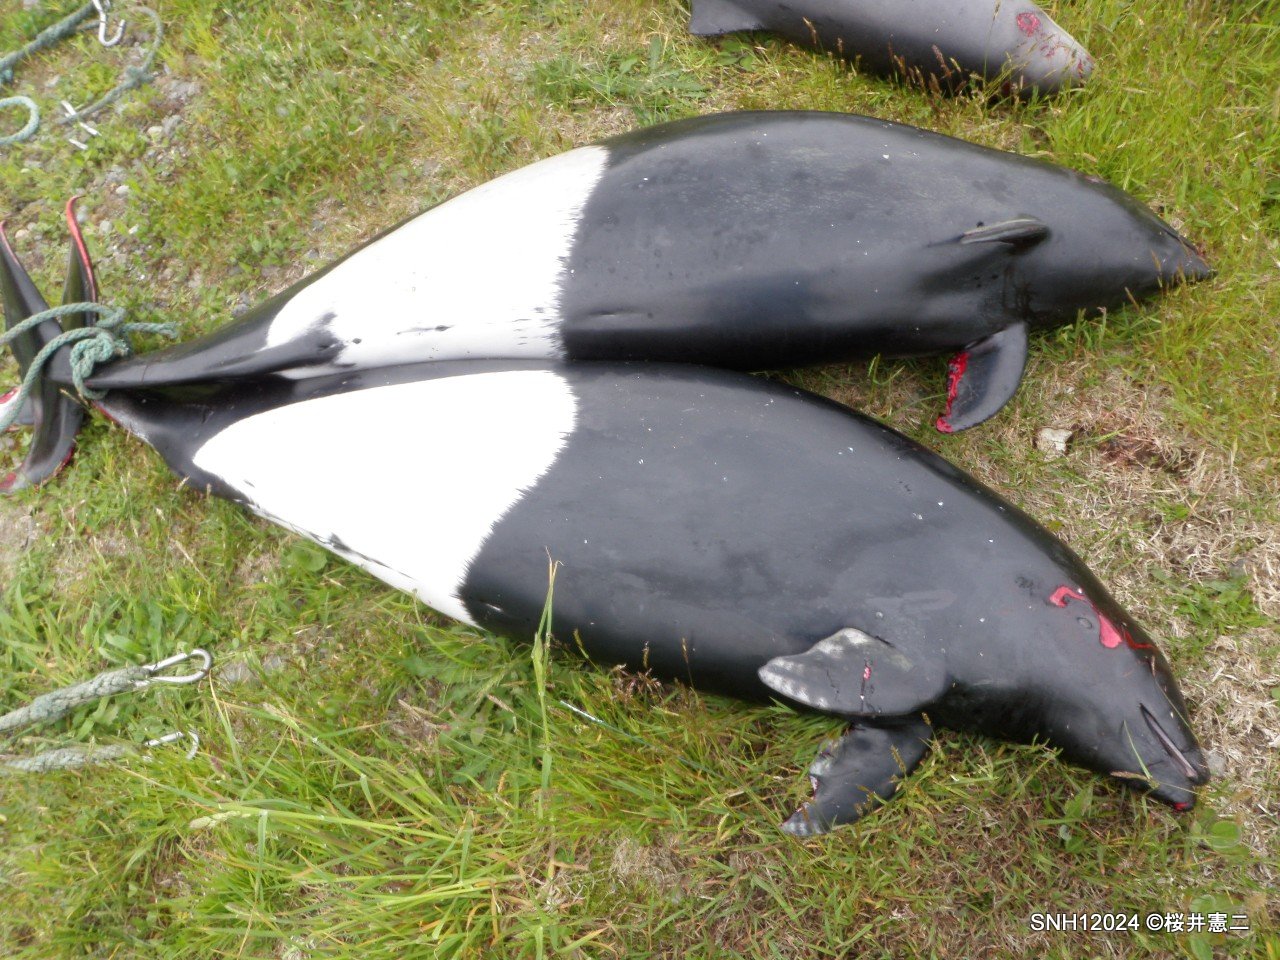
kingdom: Animalia
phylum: Chordata
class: Mammalia
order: Cetacea
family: Phocoenidae
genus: Phocoenoides
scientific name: Phocoenoides dalli
